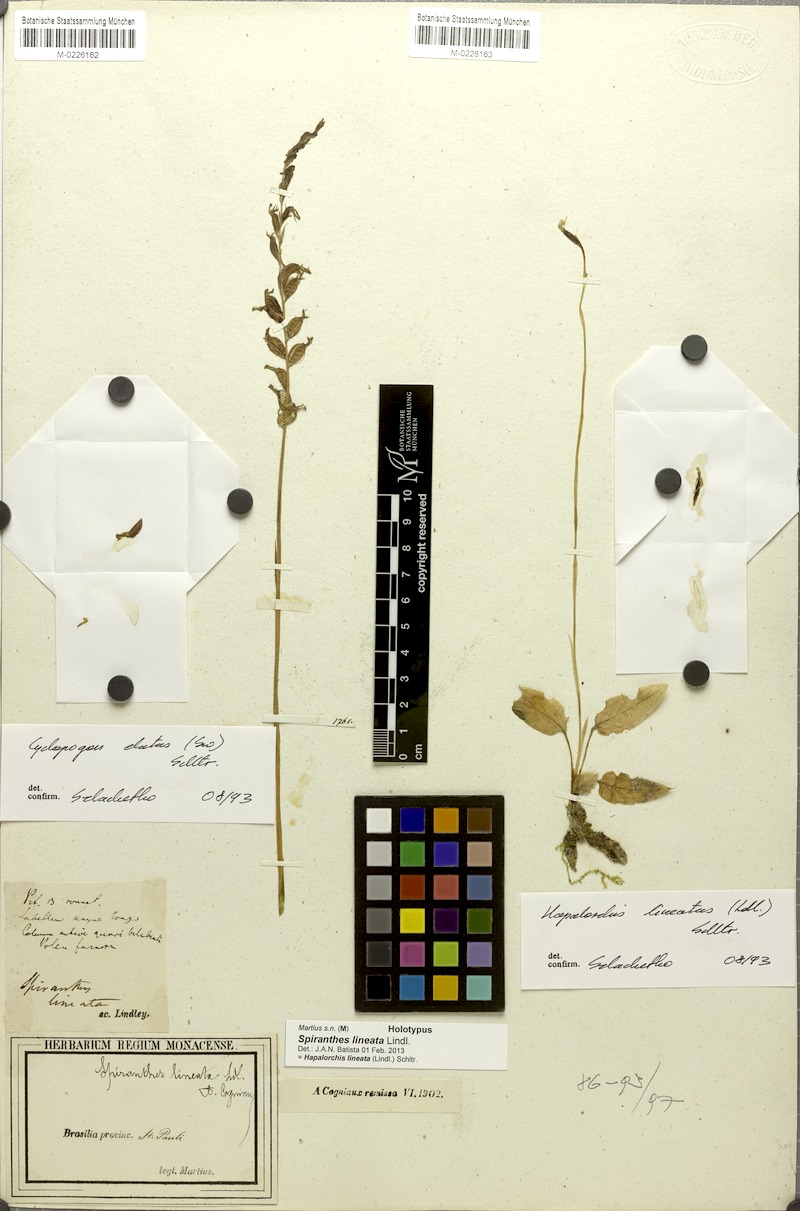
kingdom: Plantae
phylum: Tracheophyta
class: Liliopsida
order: Asparagales
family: Orchidaceae
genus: Cyclopogon
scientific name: Cyclopogon elatus
